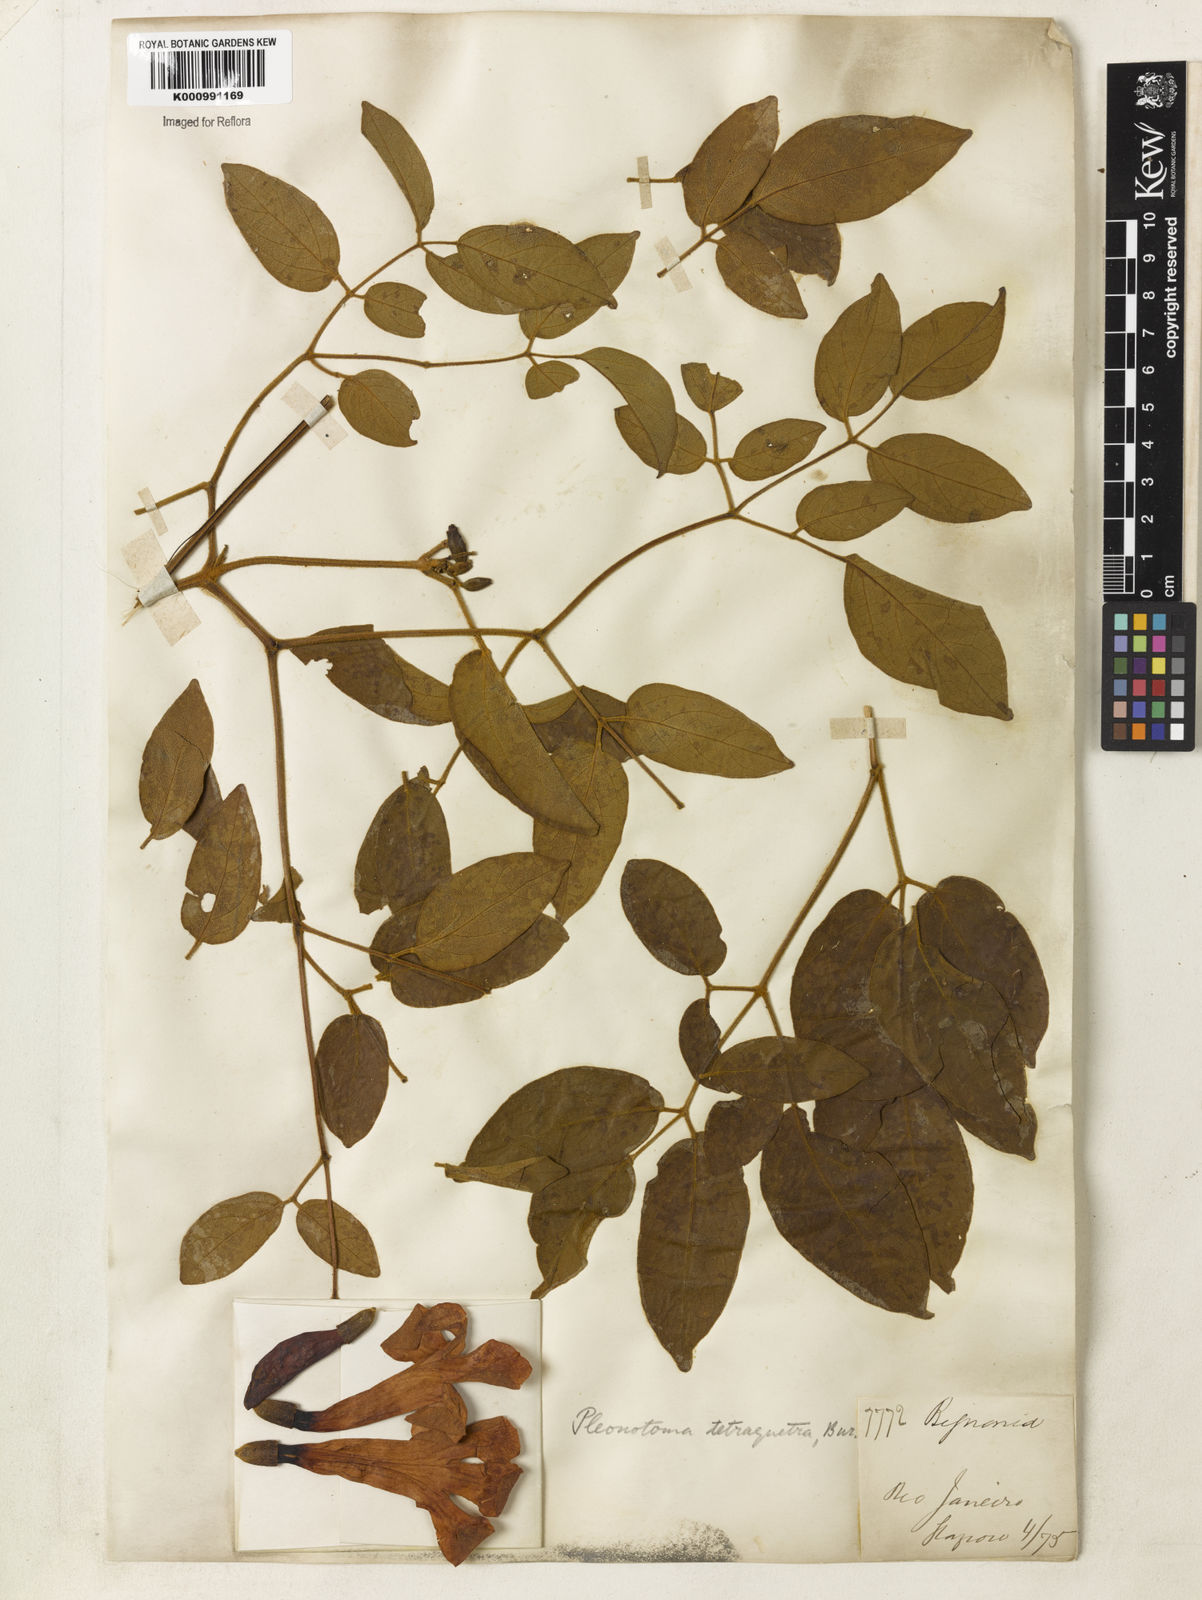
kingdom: Plantae
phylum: Tracheophyta
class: Magnoliopsida
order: Lamiales
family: Bignoniaceae
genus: Pleonotoma
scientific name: Pleonotoma tetraquetra
